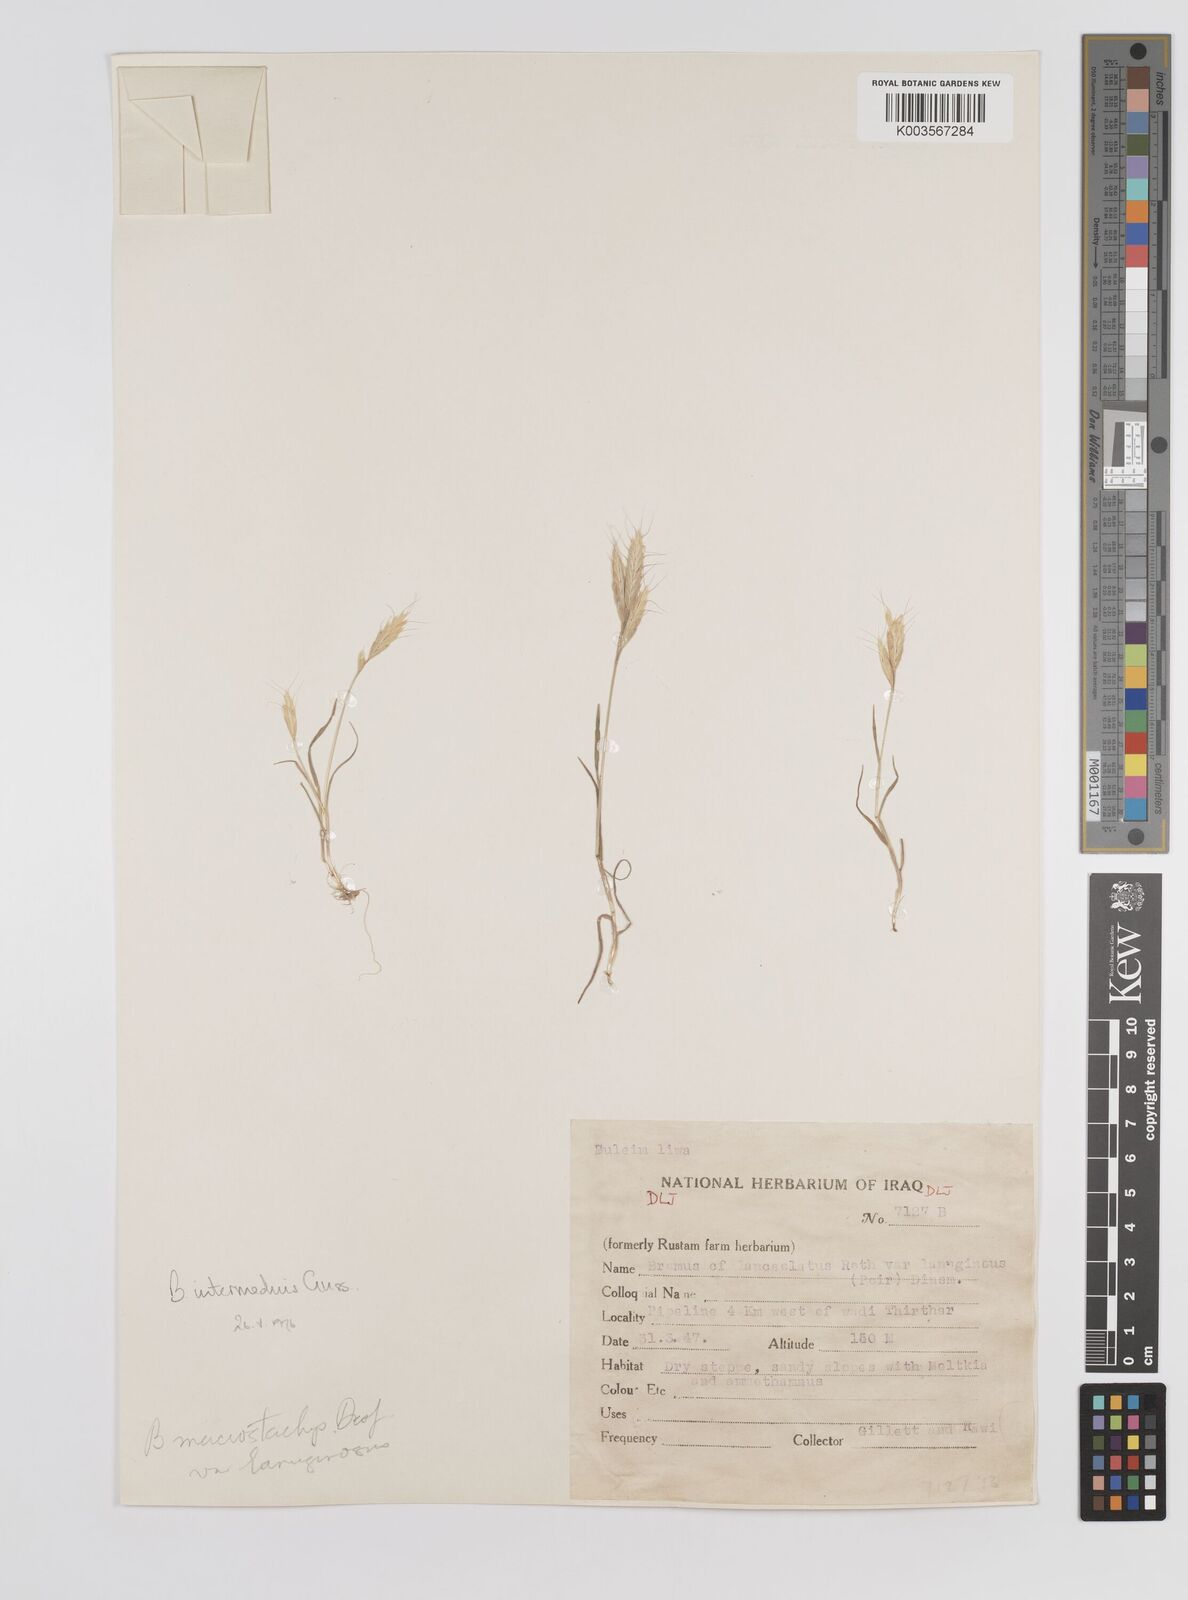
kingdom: Plantae
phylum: Tracheophyta
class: Liliopsida
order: Poales
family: Poaceae
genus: Bromus
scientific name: Bromus intermedius
